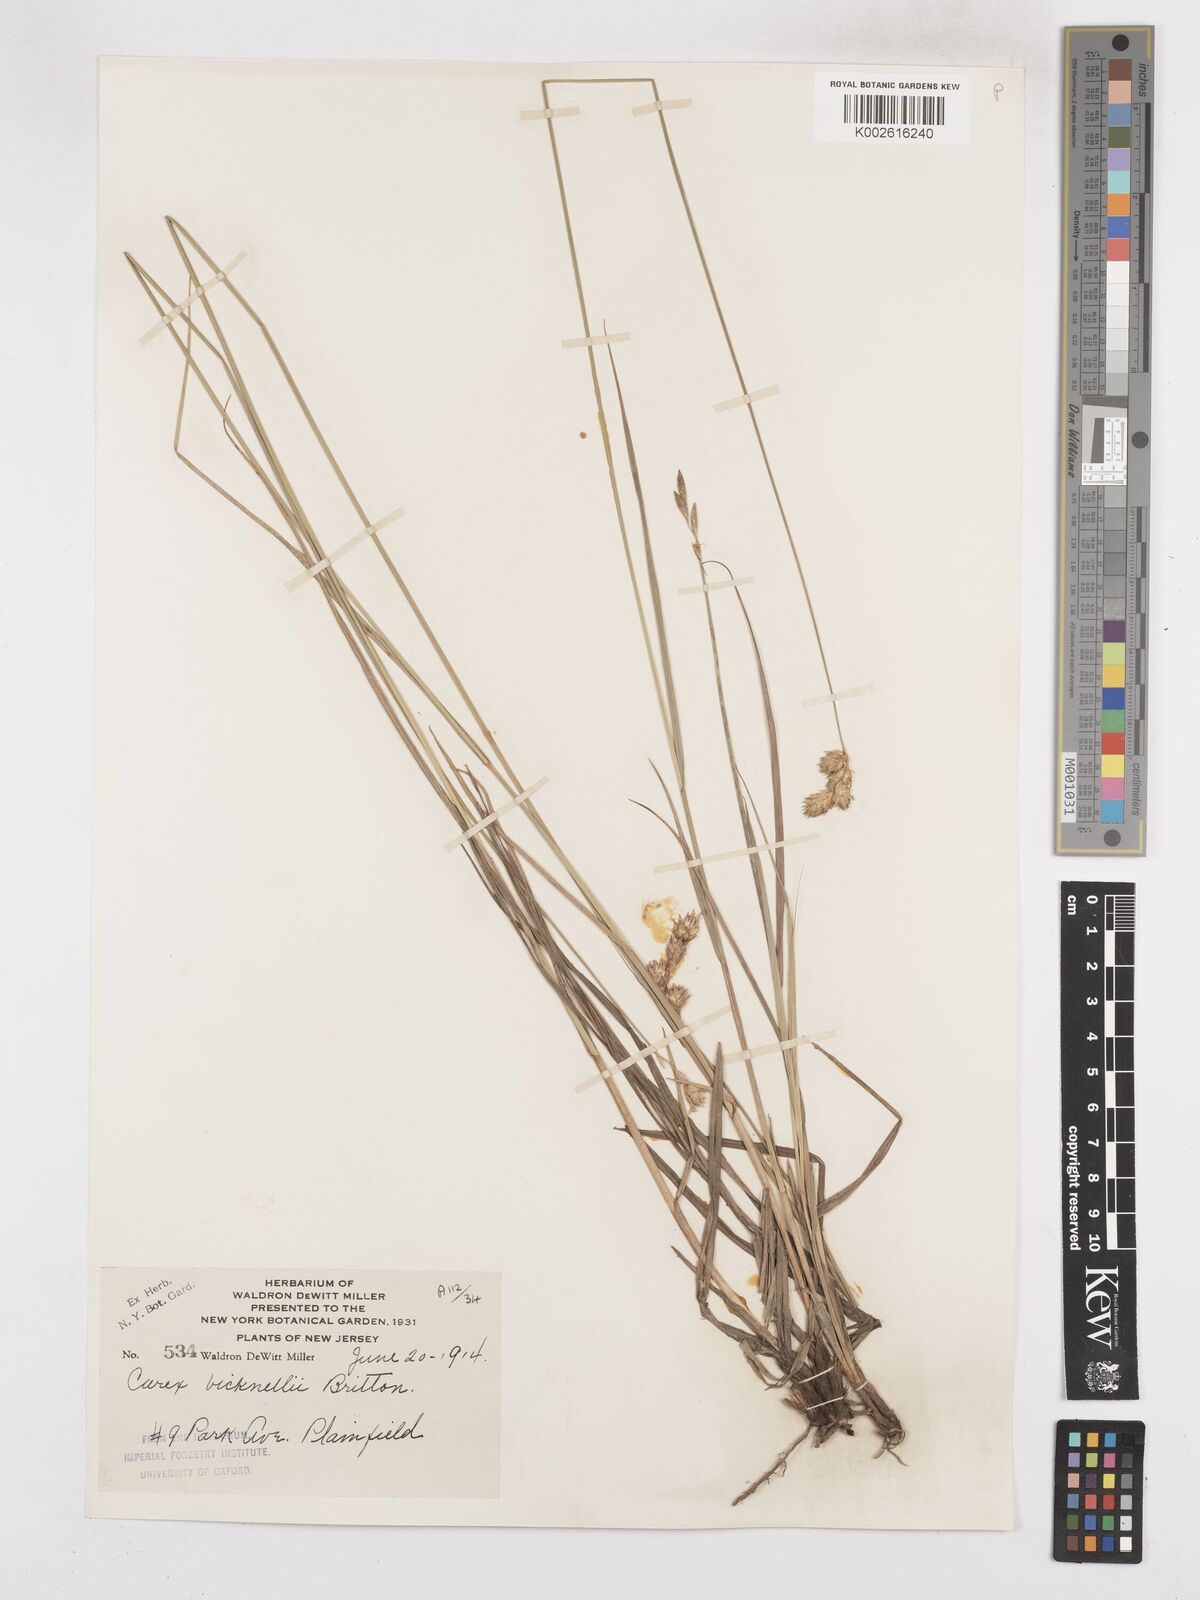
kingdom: Plantae
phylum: Tracheophyta
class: Liliopsida
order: Poales
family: Cyperaceae
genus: Carex
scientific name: Carex bicknellii
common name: Bicknell's sedge
